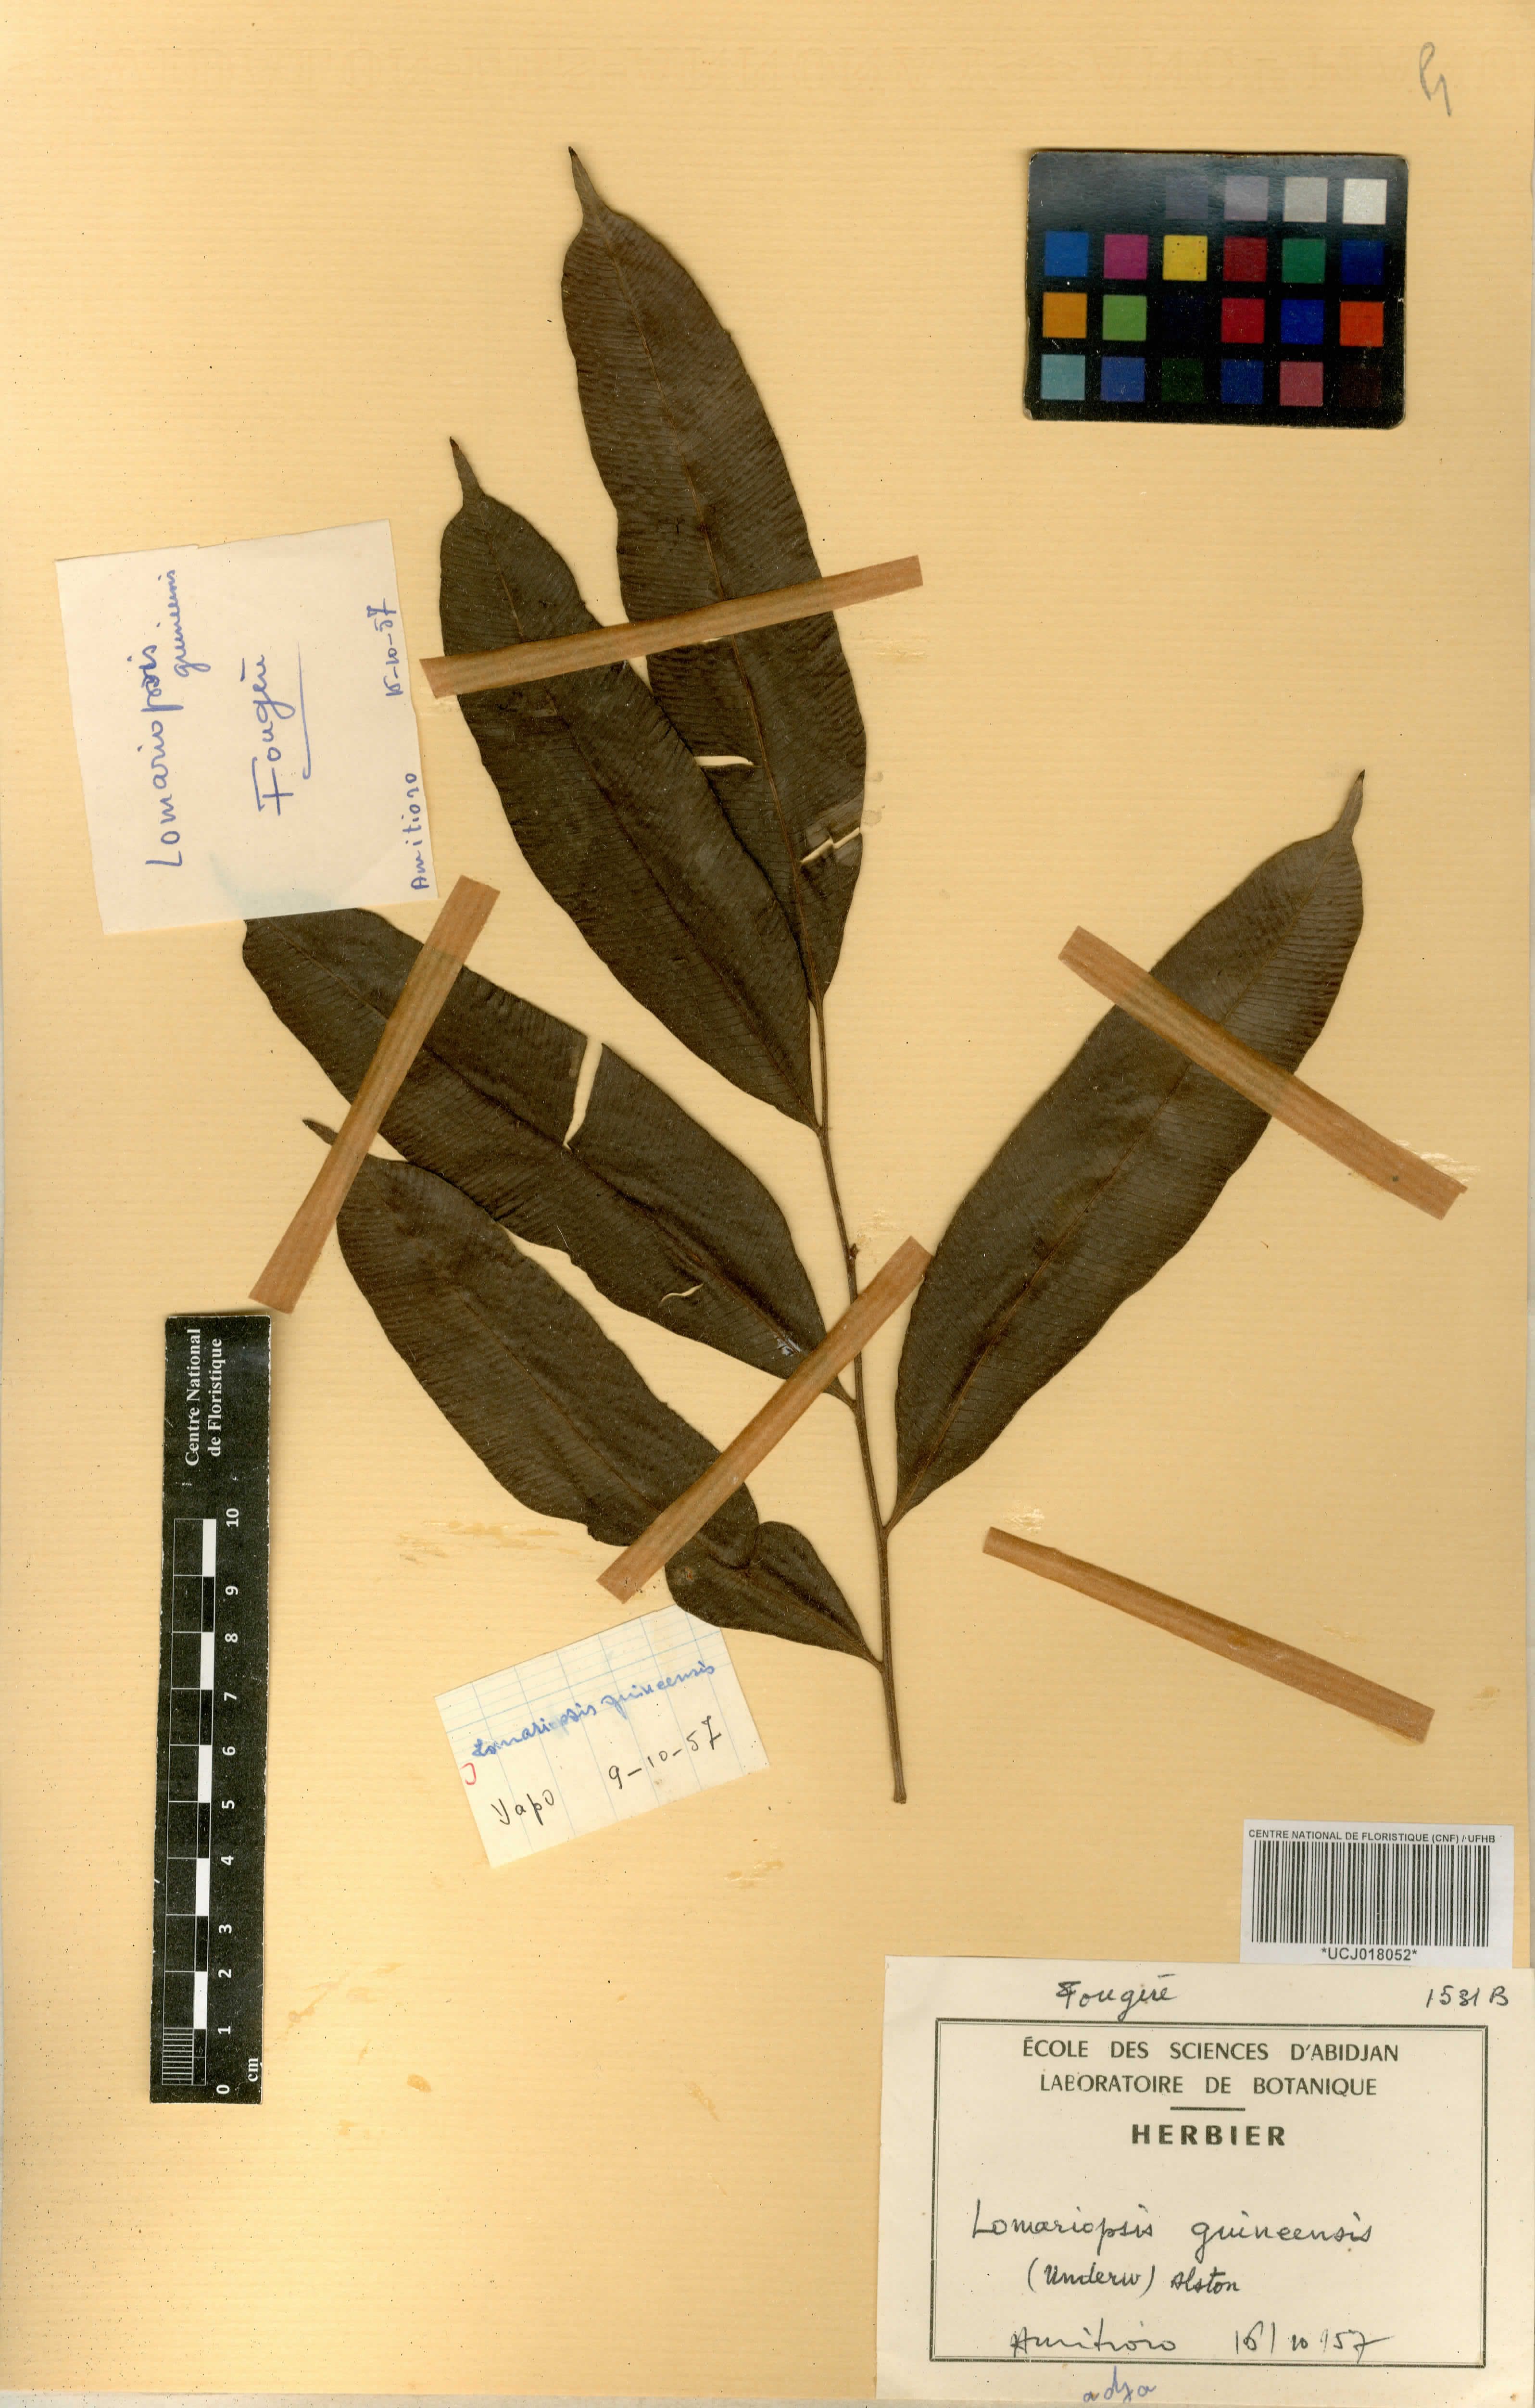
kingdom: Plantae
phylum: Tracheophyta
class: Polypodiopsida
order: Polypodiales
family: Lomariopsidaceae
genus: Lomariopsis
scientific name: Lomariopsis guineensis
